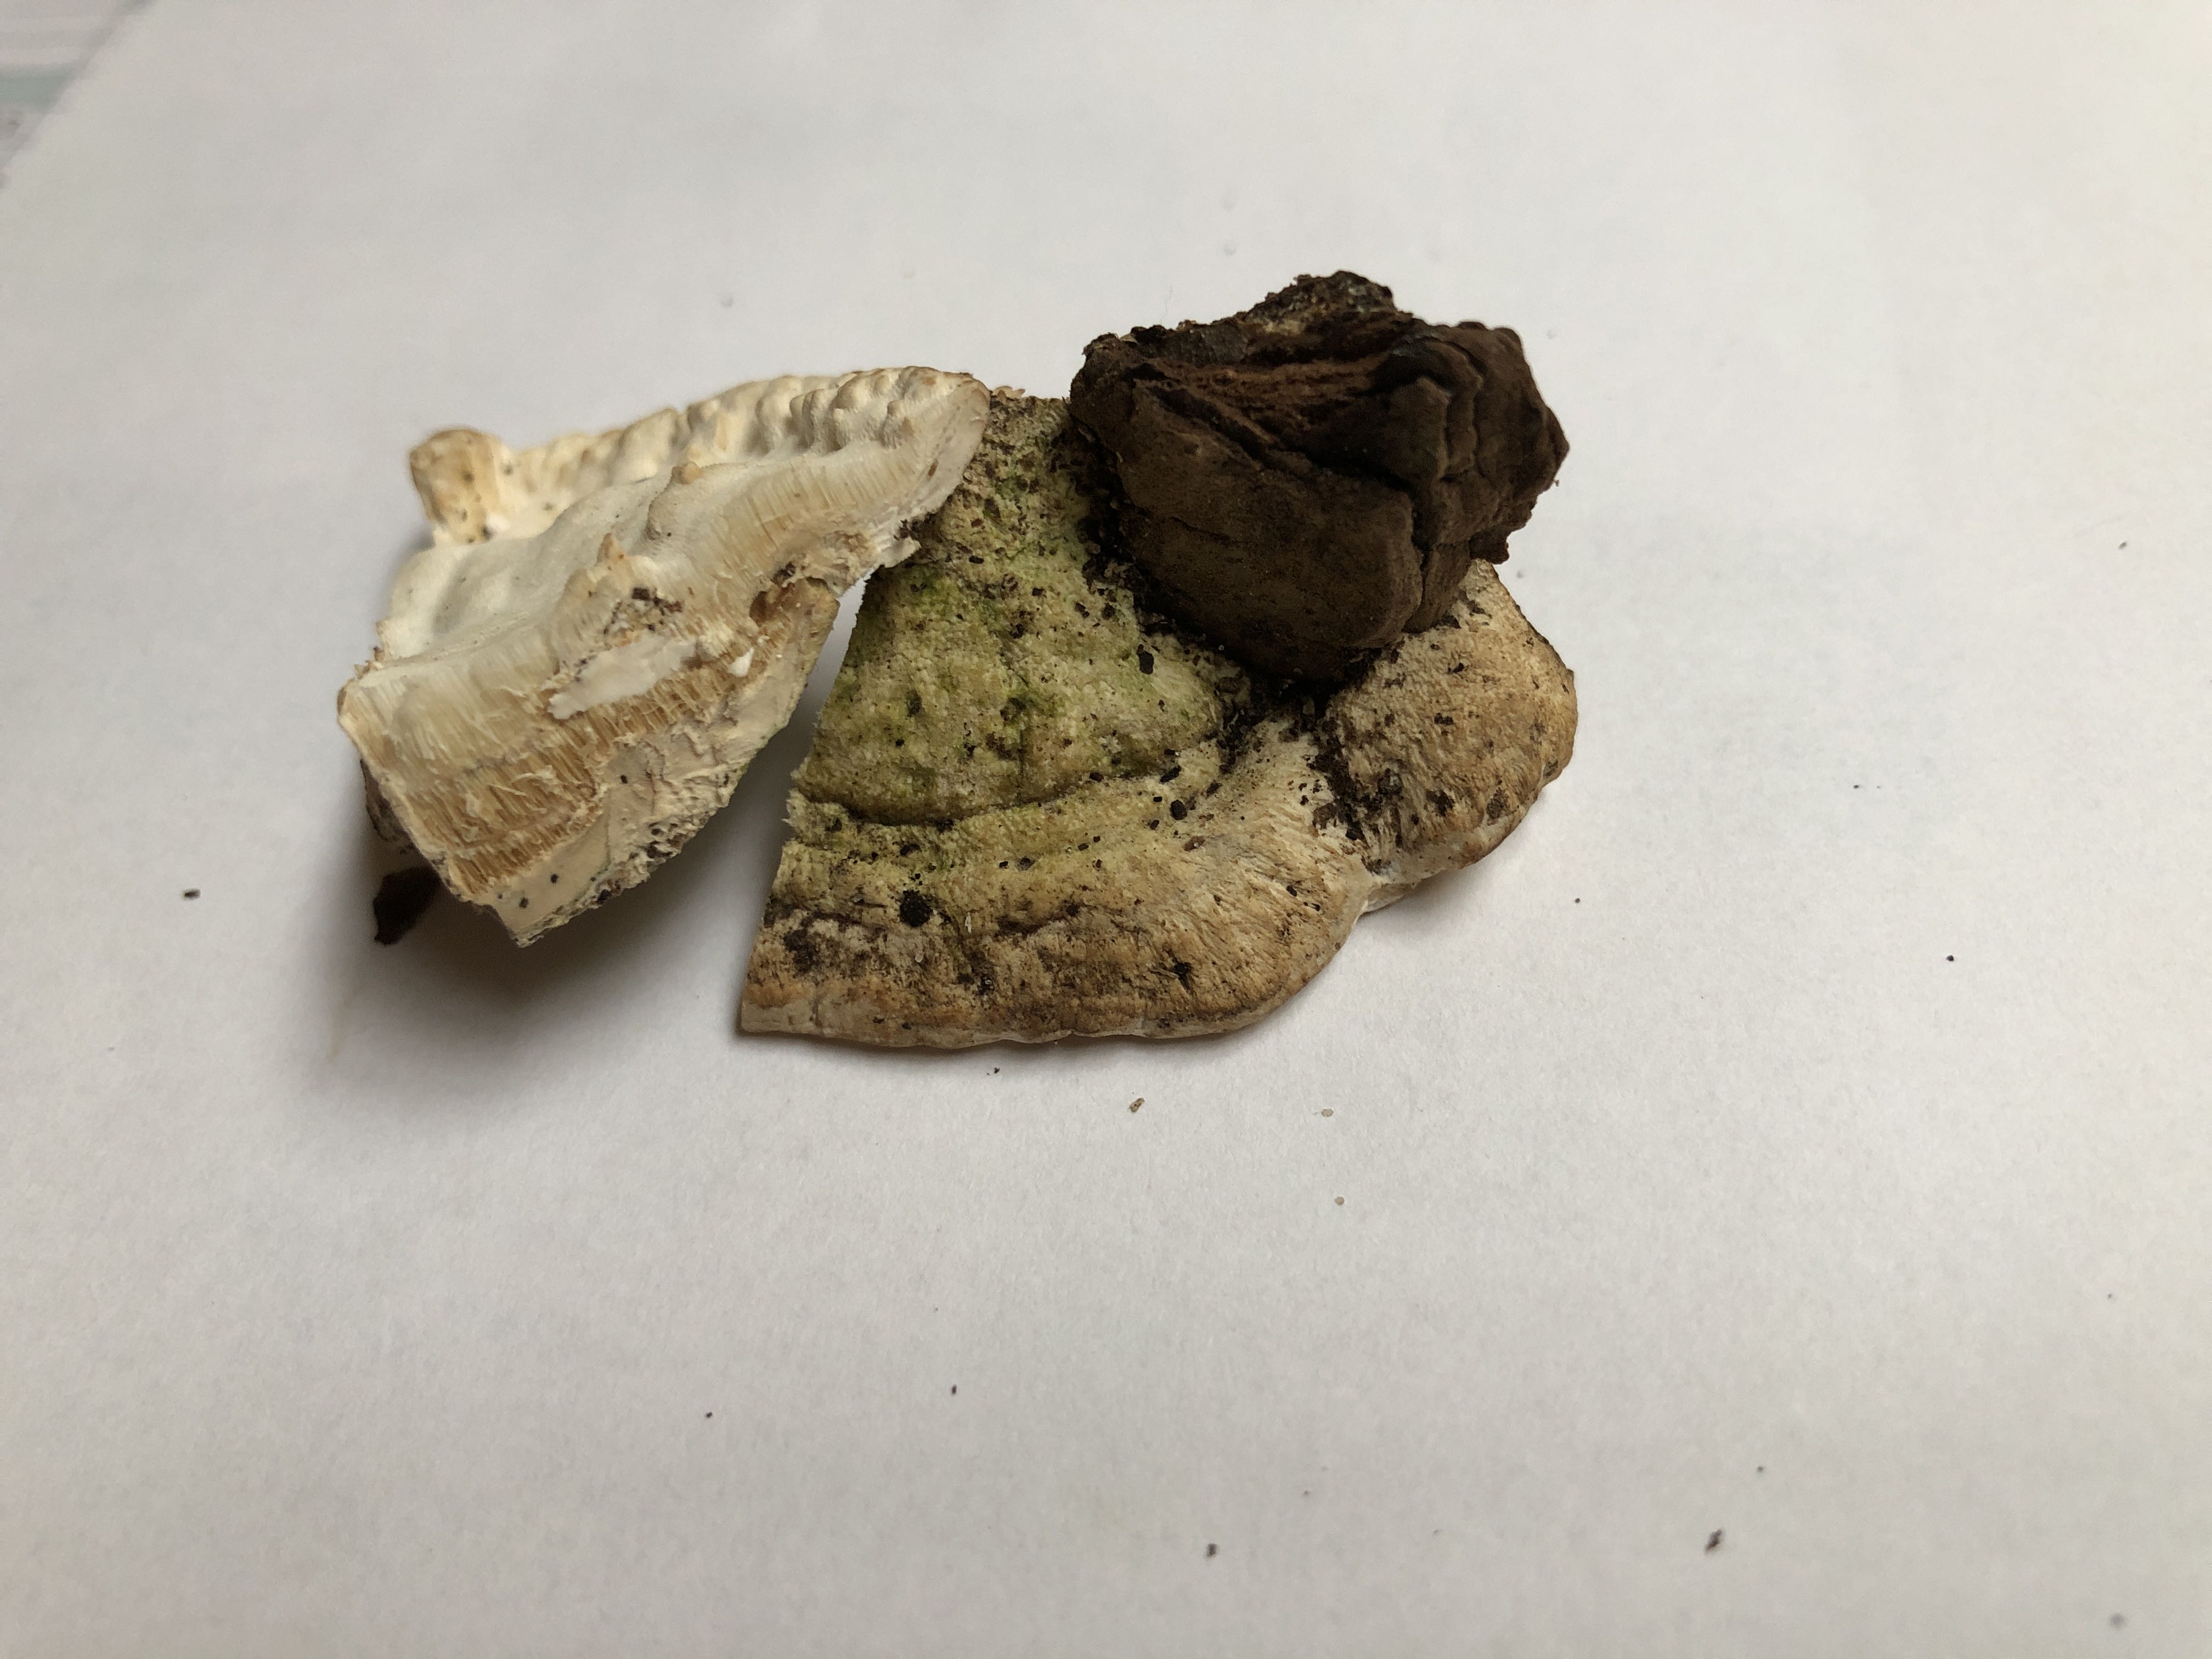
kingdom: Fungi
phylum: Basidiomycota
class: Agaricomycetes
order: Hymenochaetales
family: Oxyporaceae
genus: Oxyporus
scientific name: Oxyporus populinus
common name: sammenvokset trylleporesvamp
